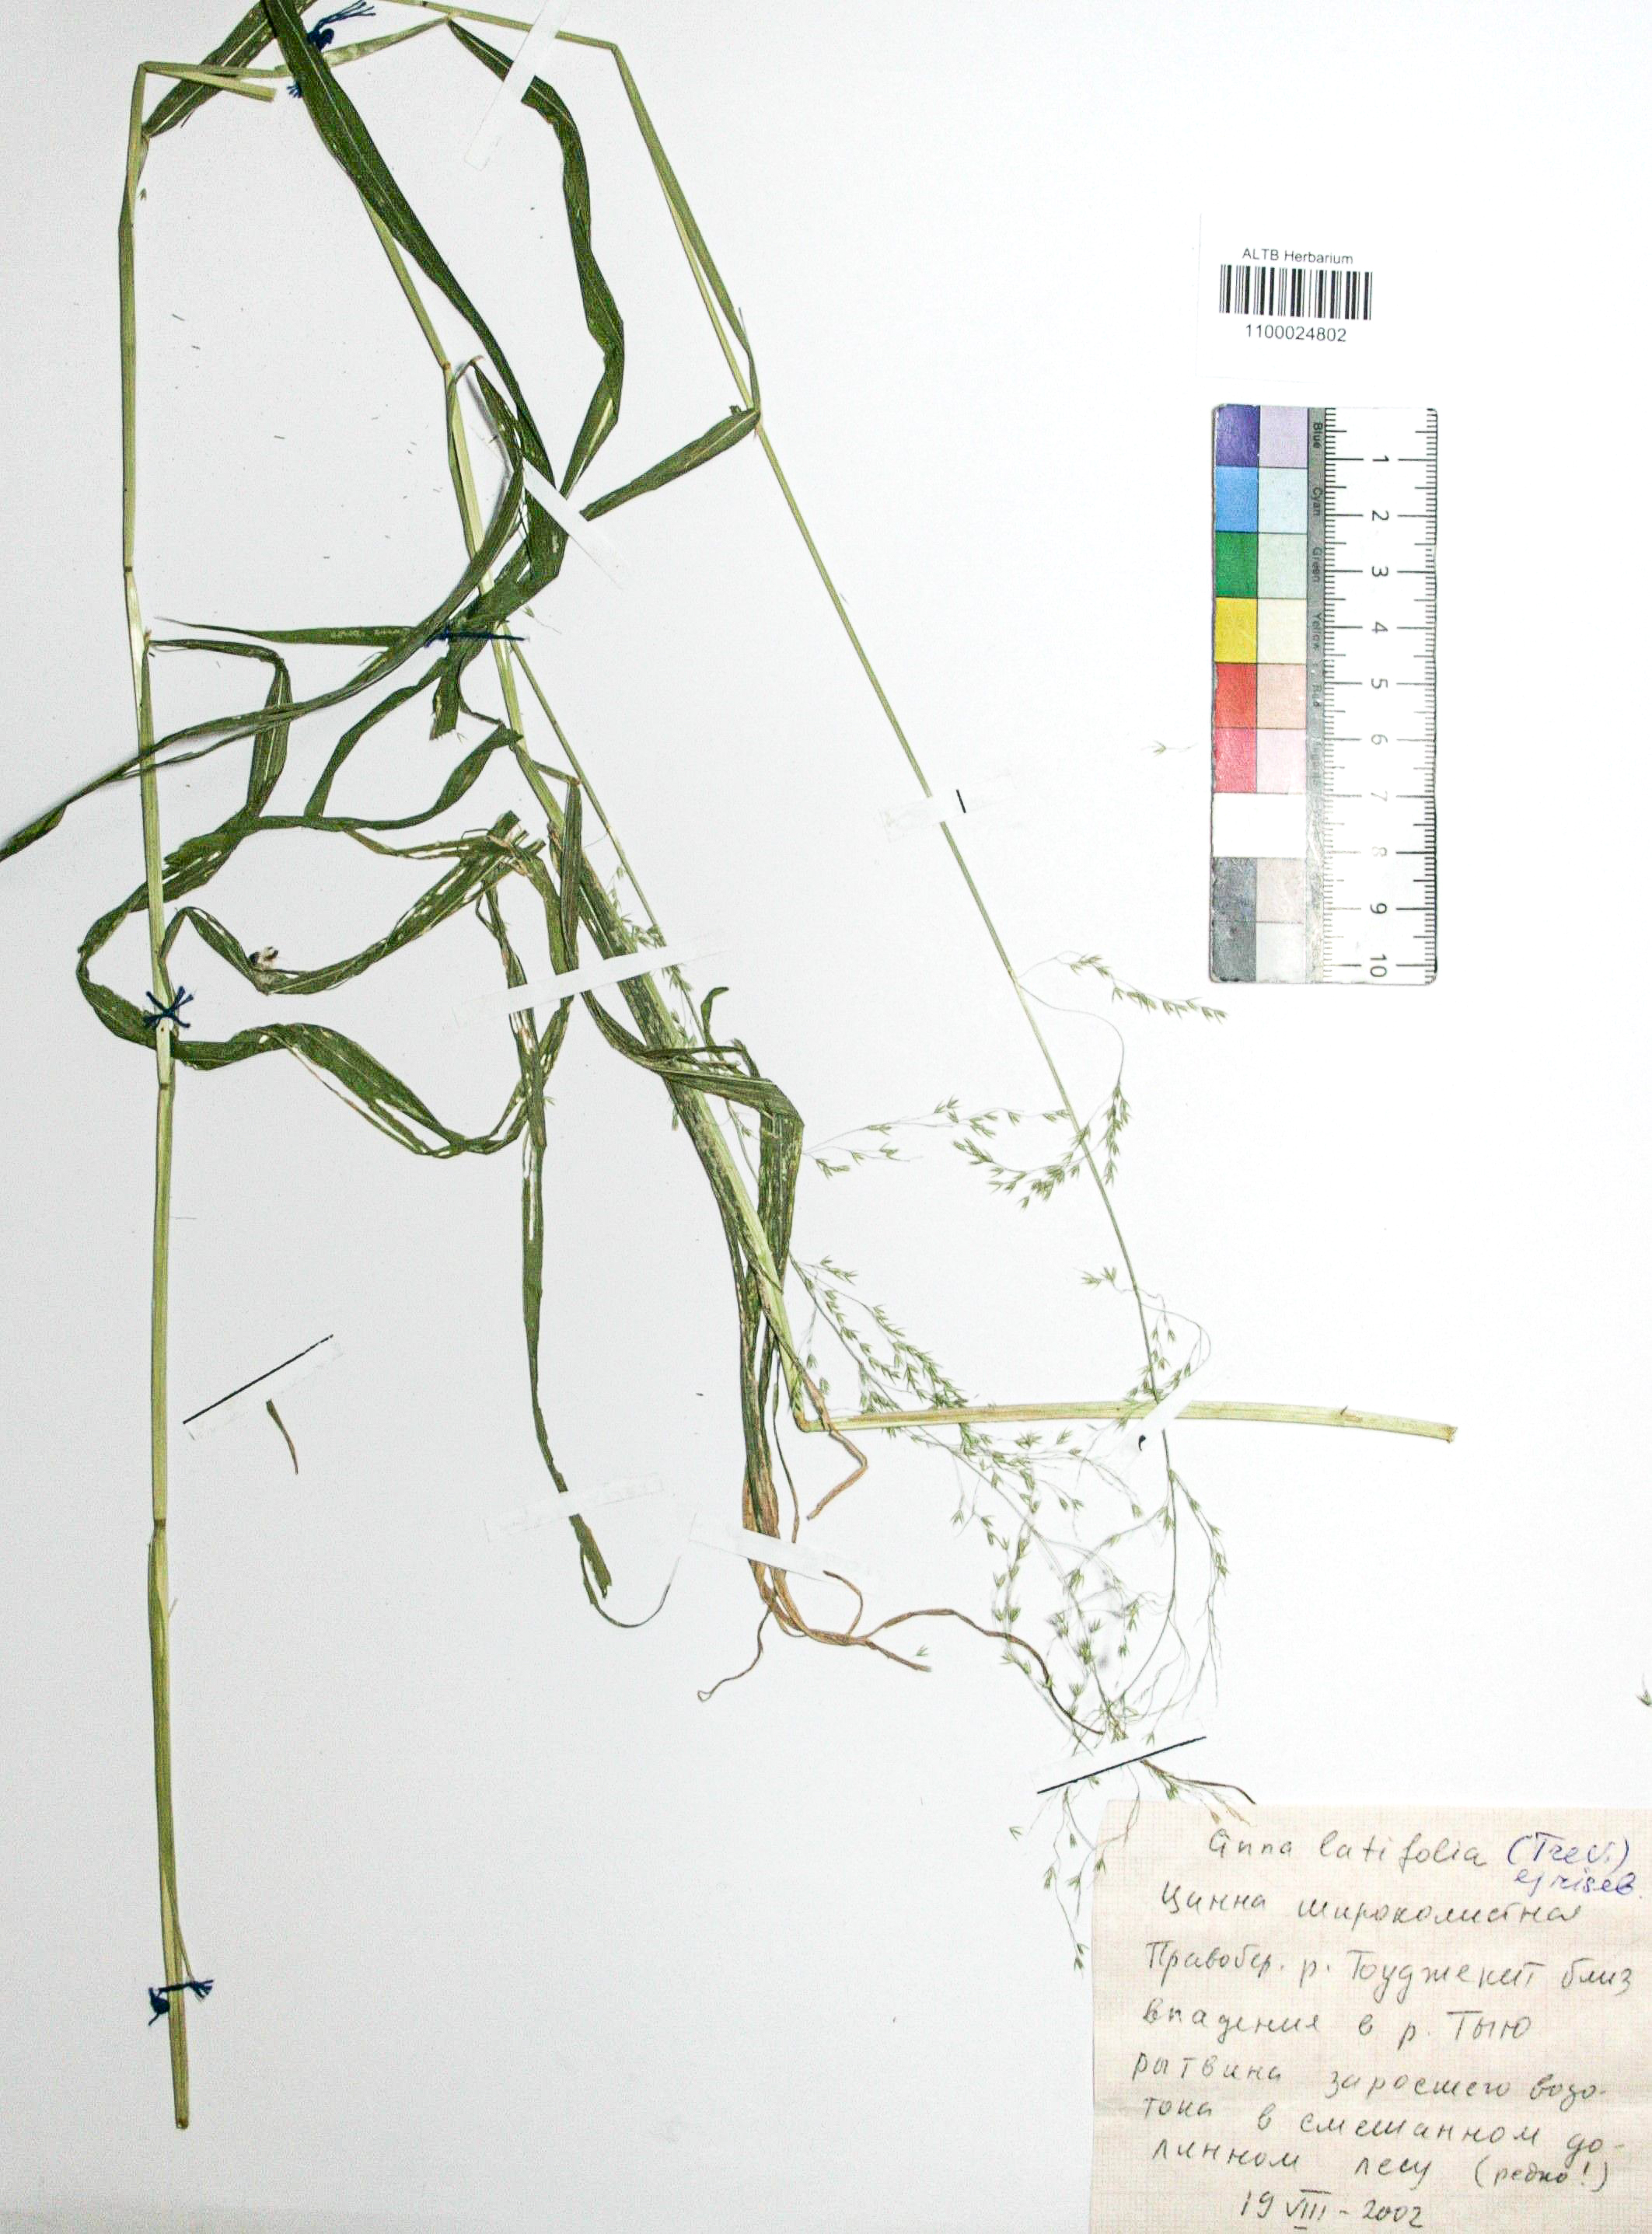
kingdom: Plantae
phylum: Tracheophyta
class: Liliopsida
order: Poales
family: Poaceae
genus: Cinna
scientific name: Cinna latifolia
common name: Drooping woodreed
